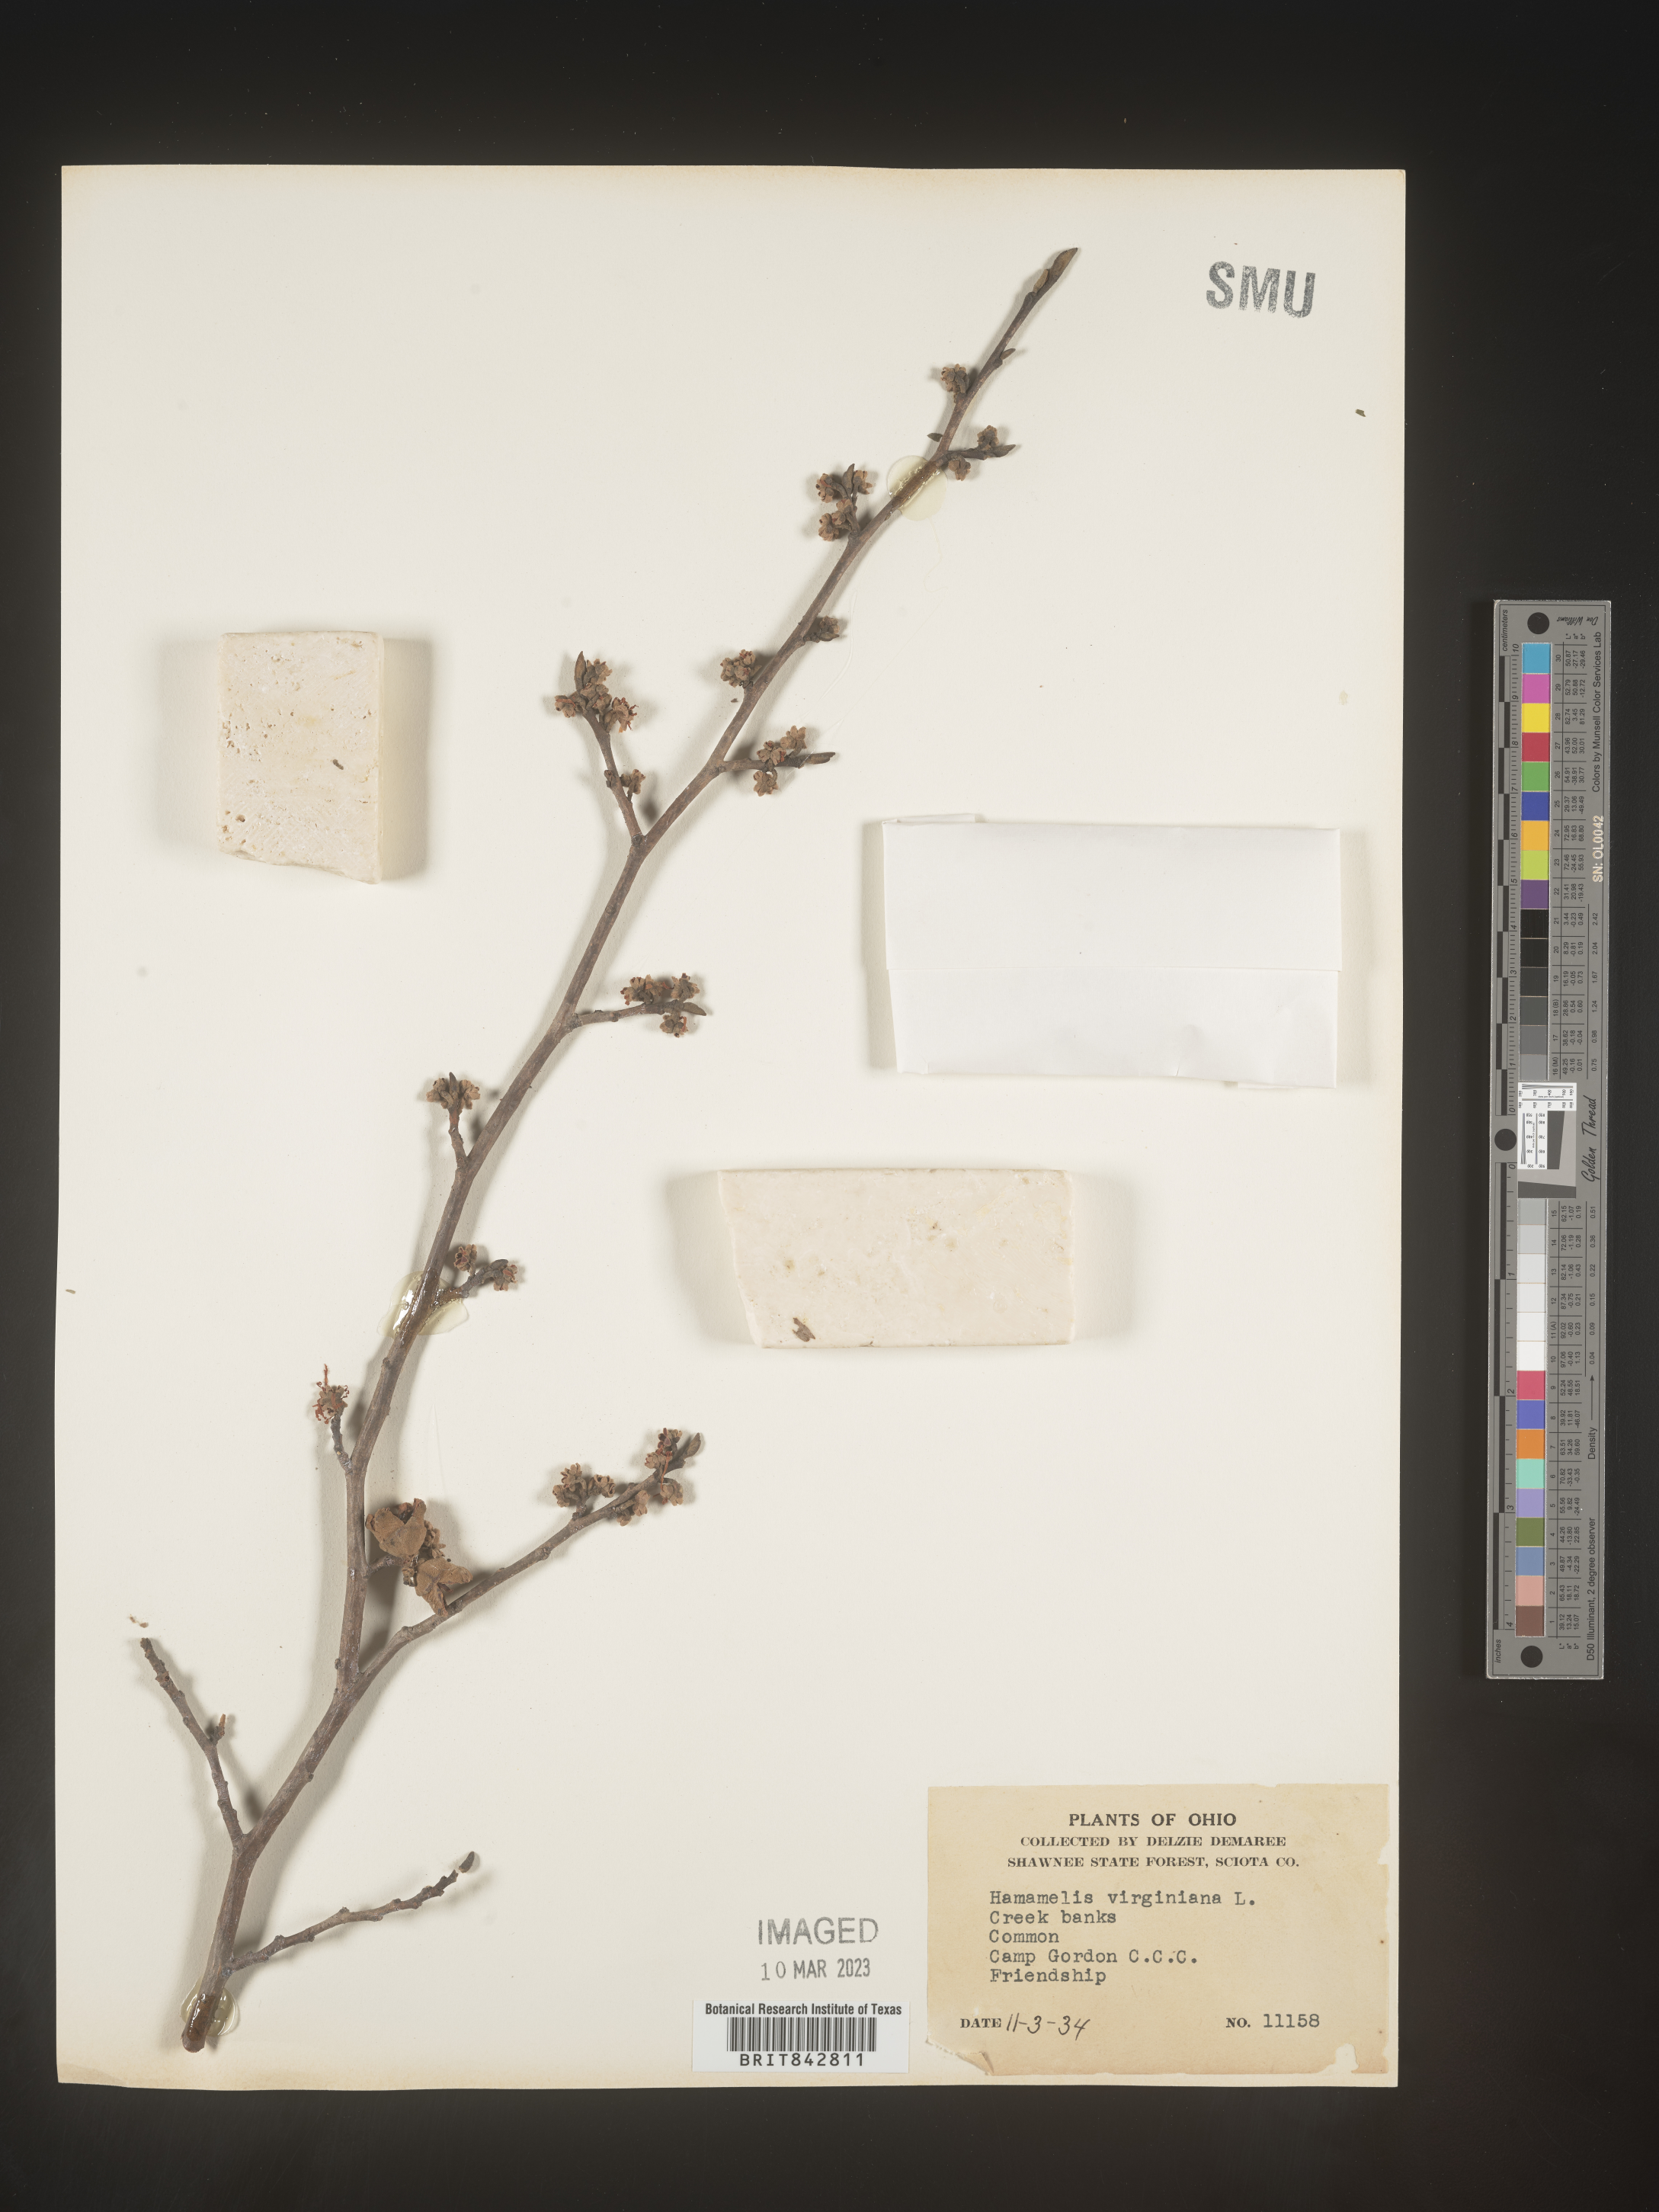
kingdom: Plantae
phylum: Tracheophyta
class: Magnoliopsida
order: Saxifragales
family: Hamamelidaceae
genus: Hamamelis
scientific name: Hamamelis virginiana
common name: Witch-hazel
